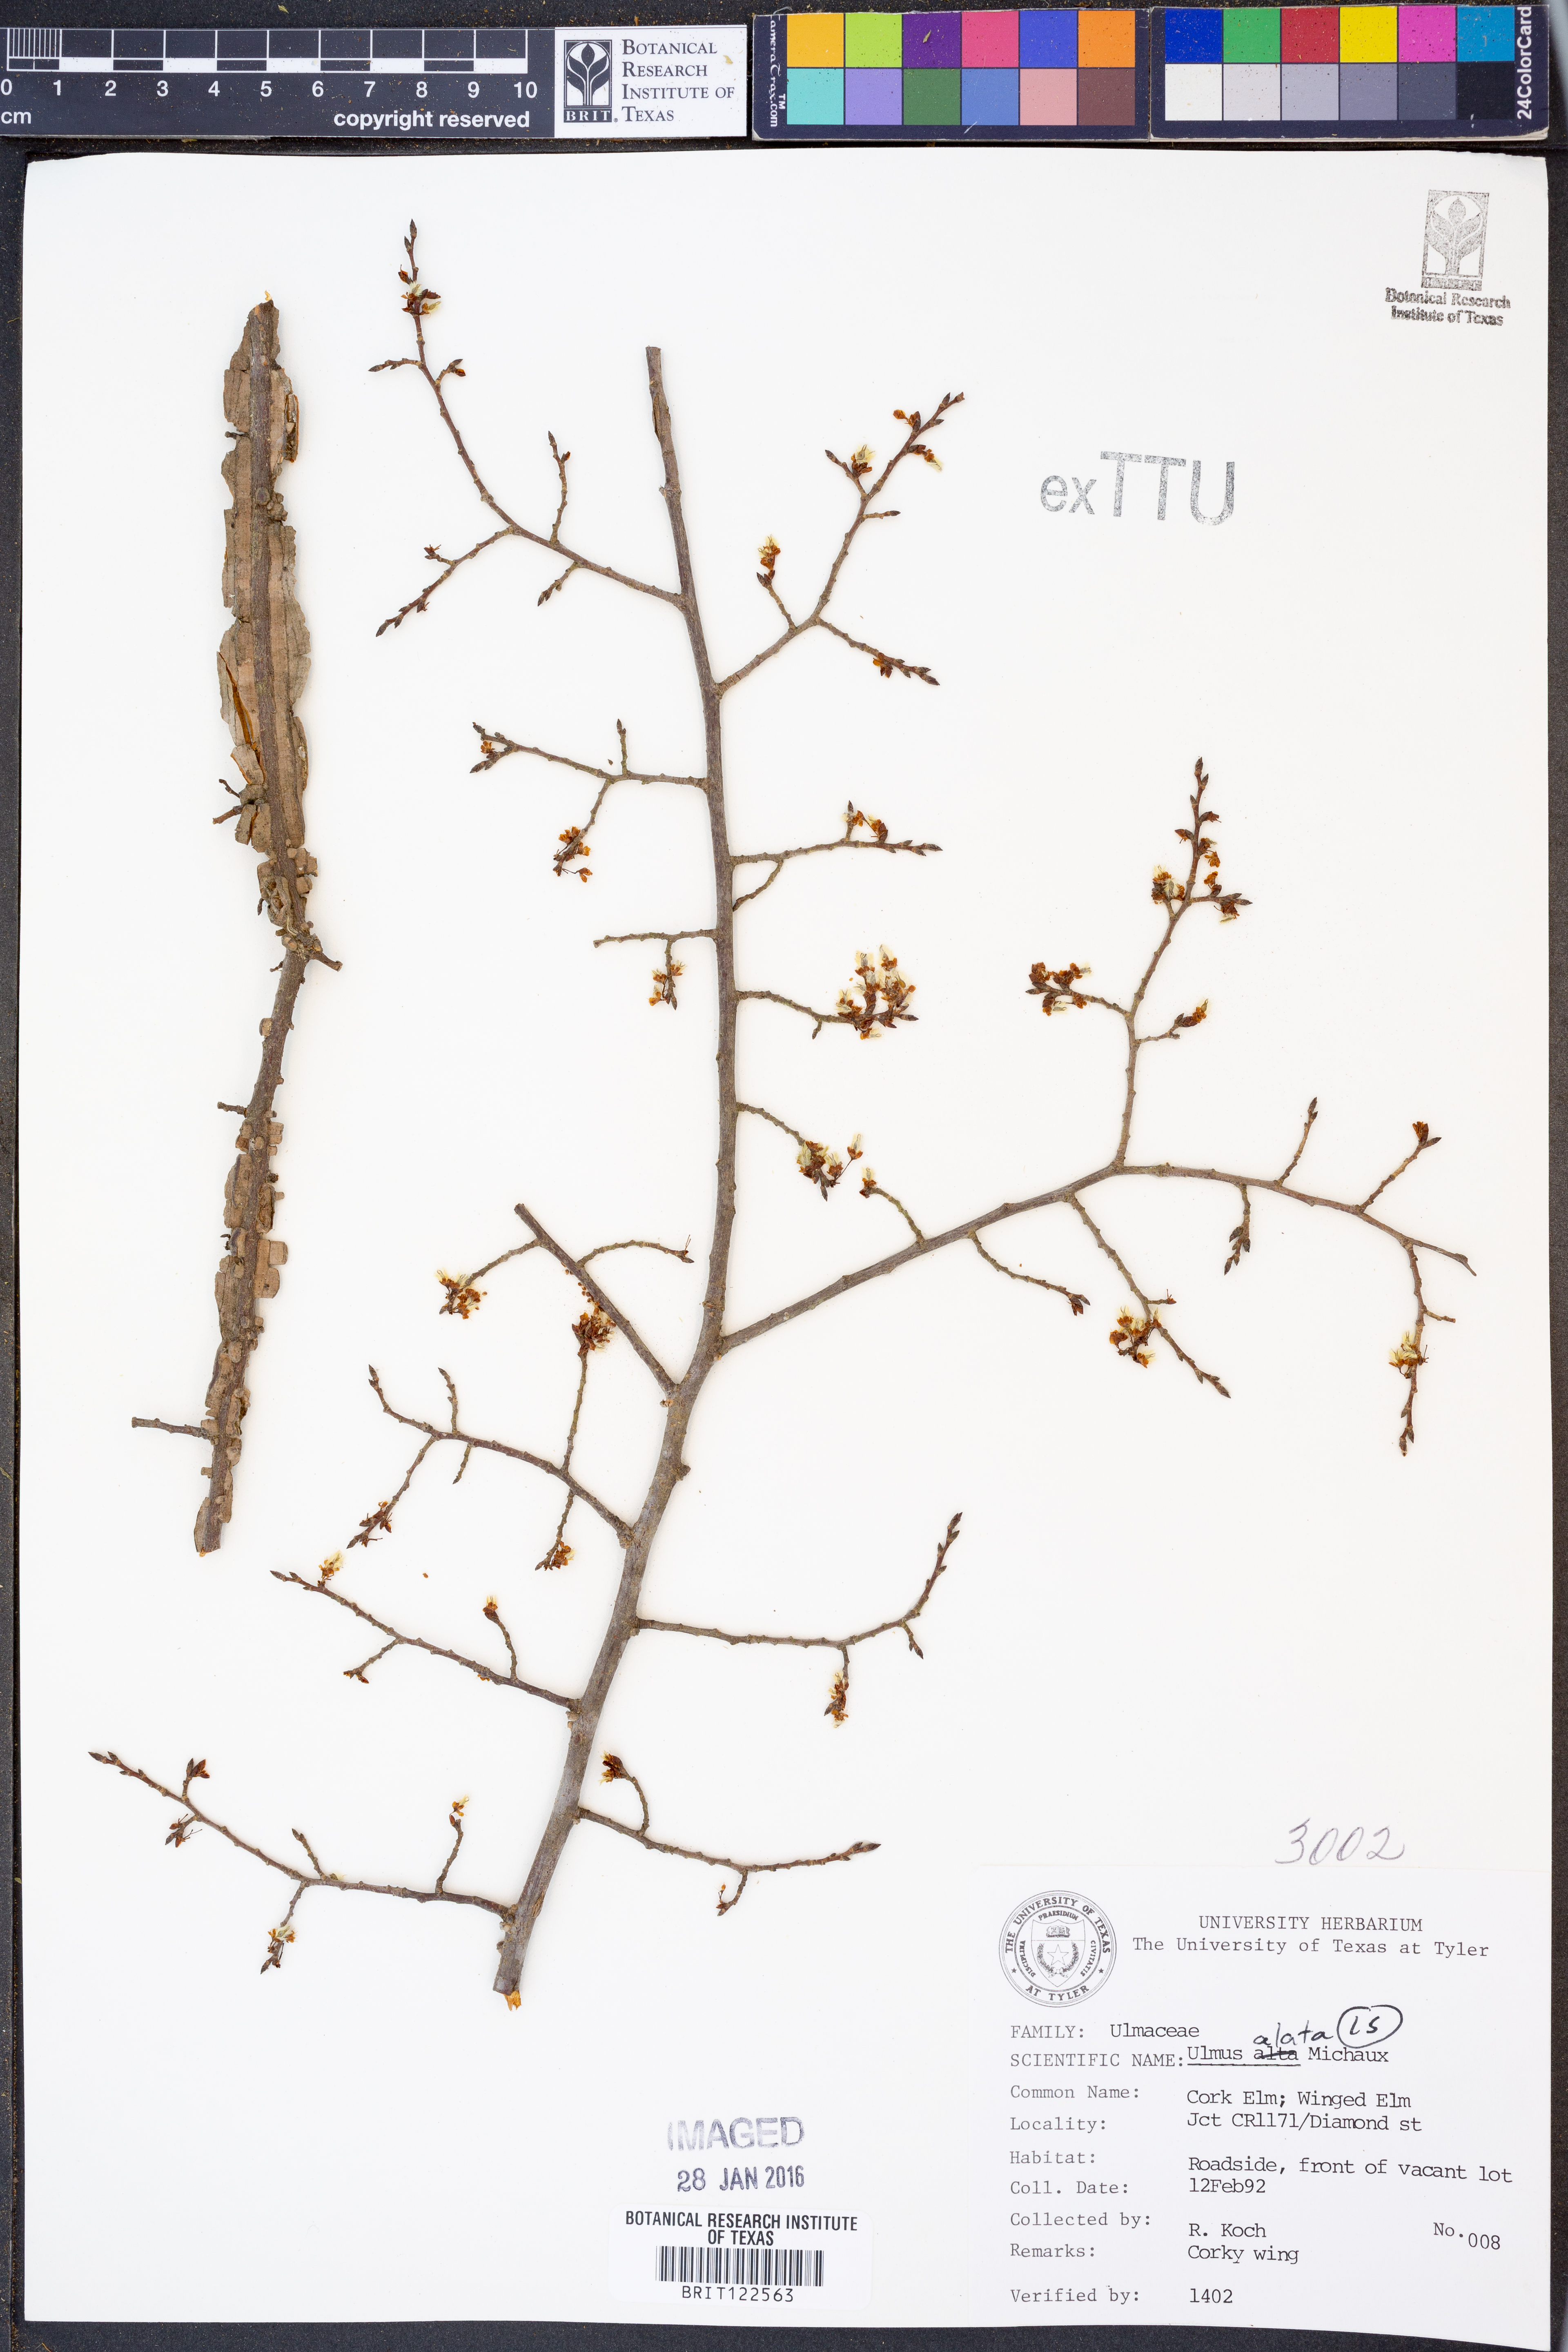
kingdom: Plantae
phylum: Tracheophyta
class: Magnoliopsida
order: Rosales
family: Ulmaceae
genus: Ulmus
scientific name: Ulmus alata
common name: Winged elm
